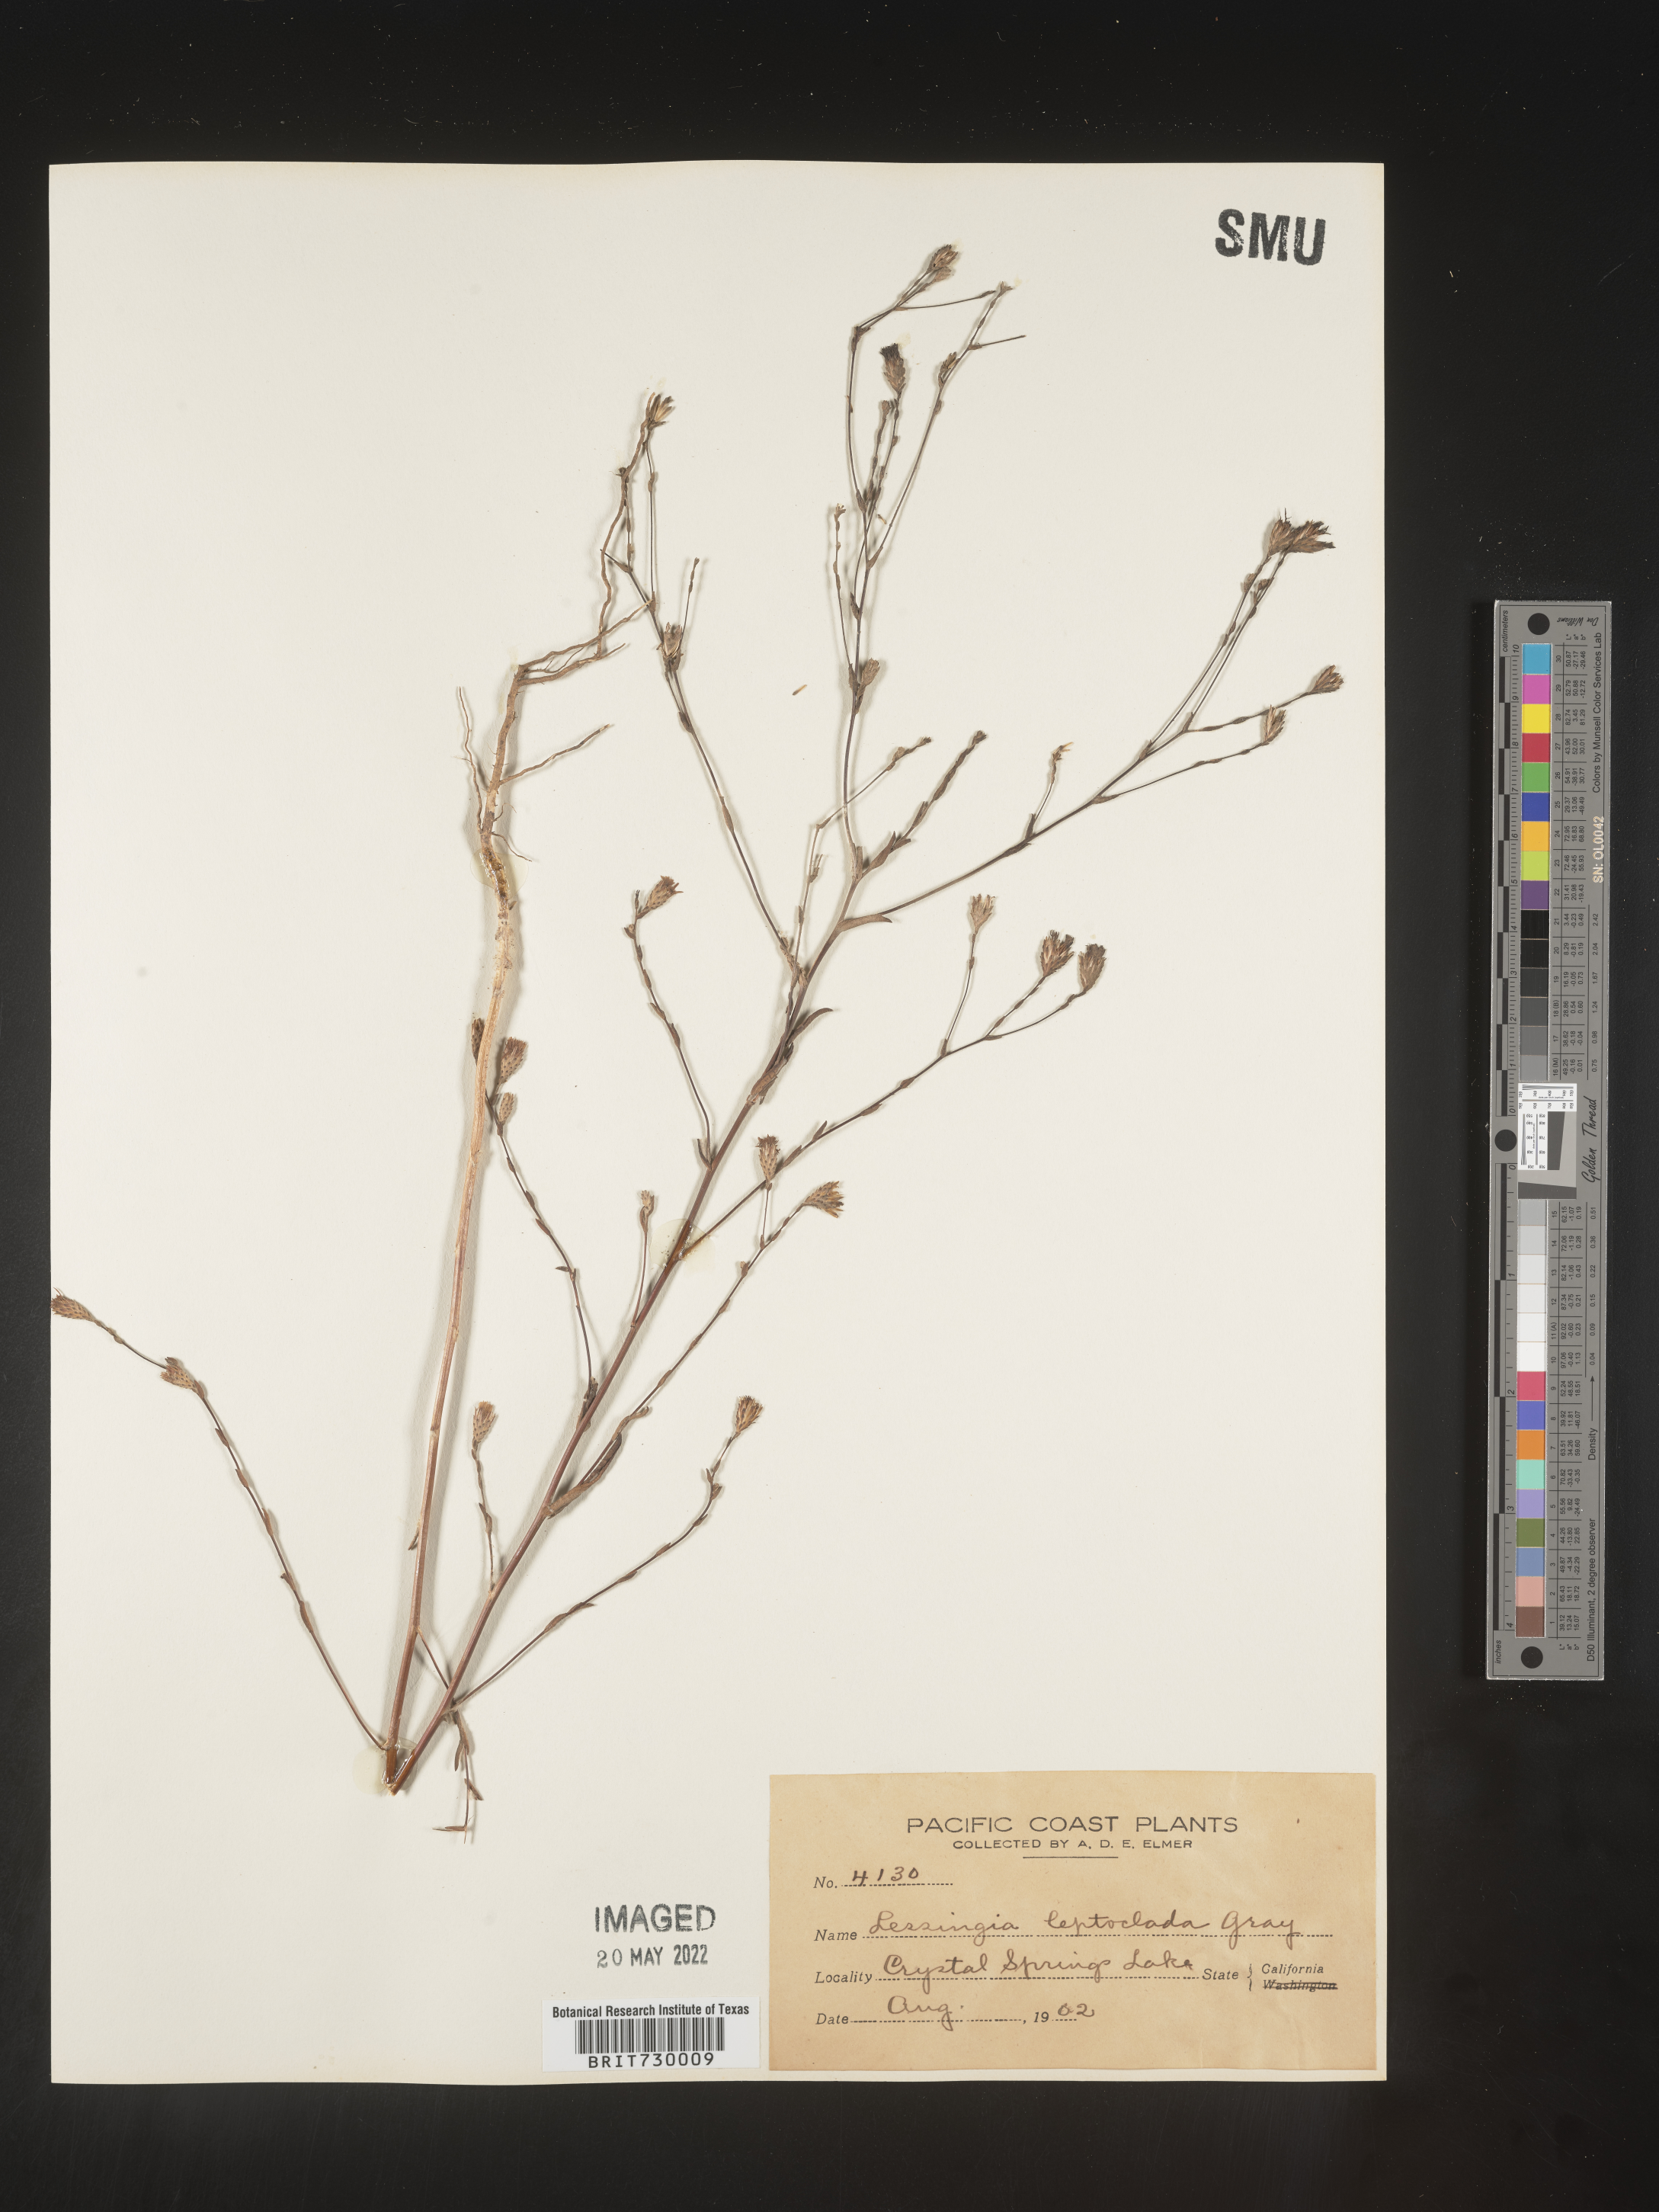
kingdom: Plantae
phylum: Tracheophyta
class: Magnoliopsida
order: Asterales
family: Asteraceae
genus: Lessingia
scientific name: Lessingia
